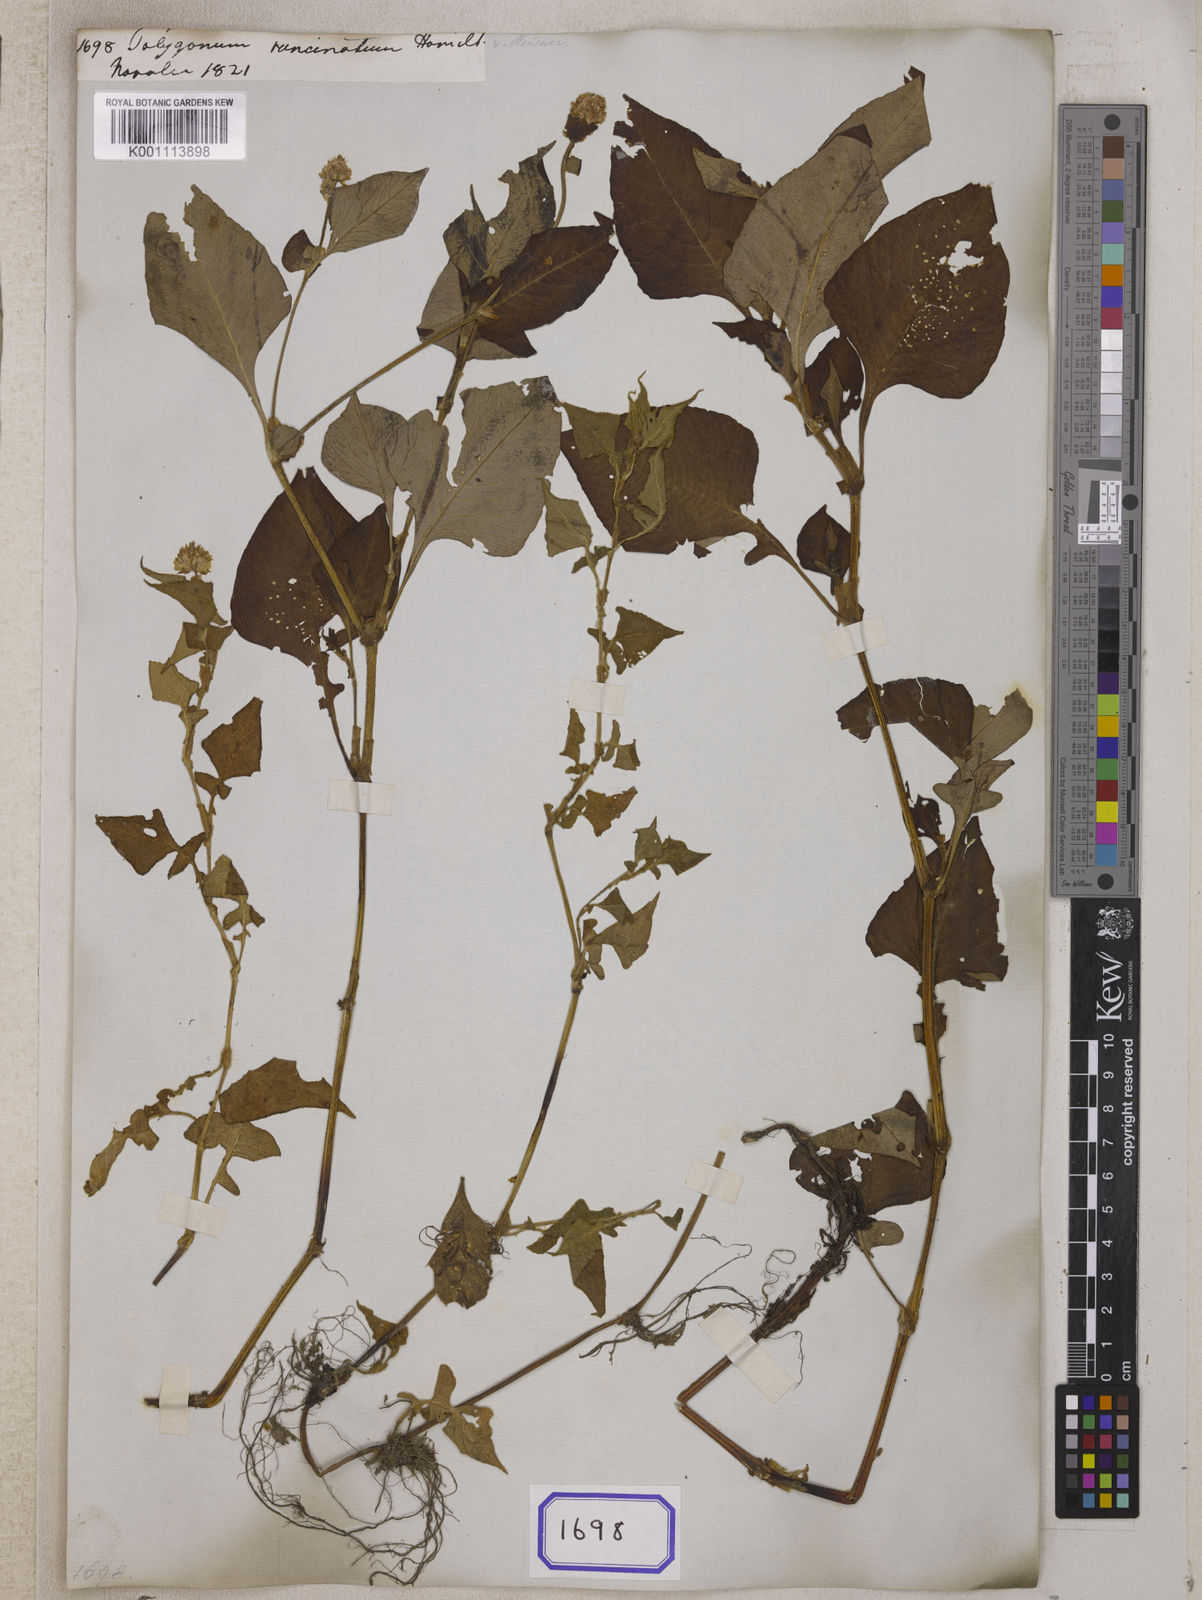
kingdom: Plantae
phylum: Tracheophyta
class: Magnoliopsida
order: Caryophyllales
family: Polygonaceae
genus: Polygonum
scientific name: Polygonum
